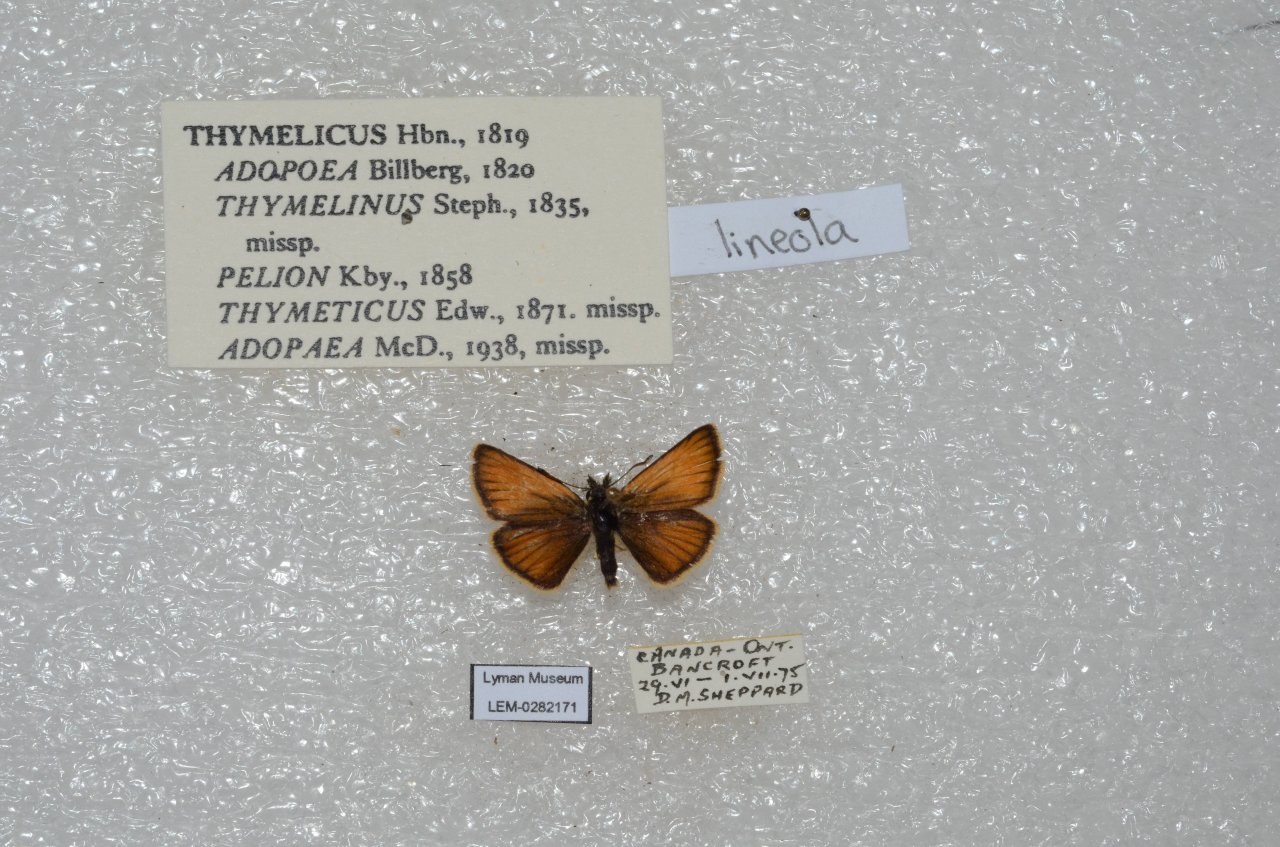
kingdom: Animalia
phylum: Arthropoda
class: Insecta
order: Lepidoptera
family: Hesperiidae
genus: Thymelicus
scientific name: Thymelicus lineola
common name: European Skipper
